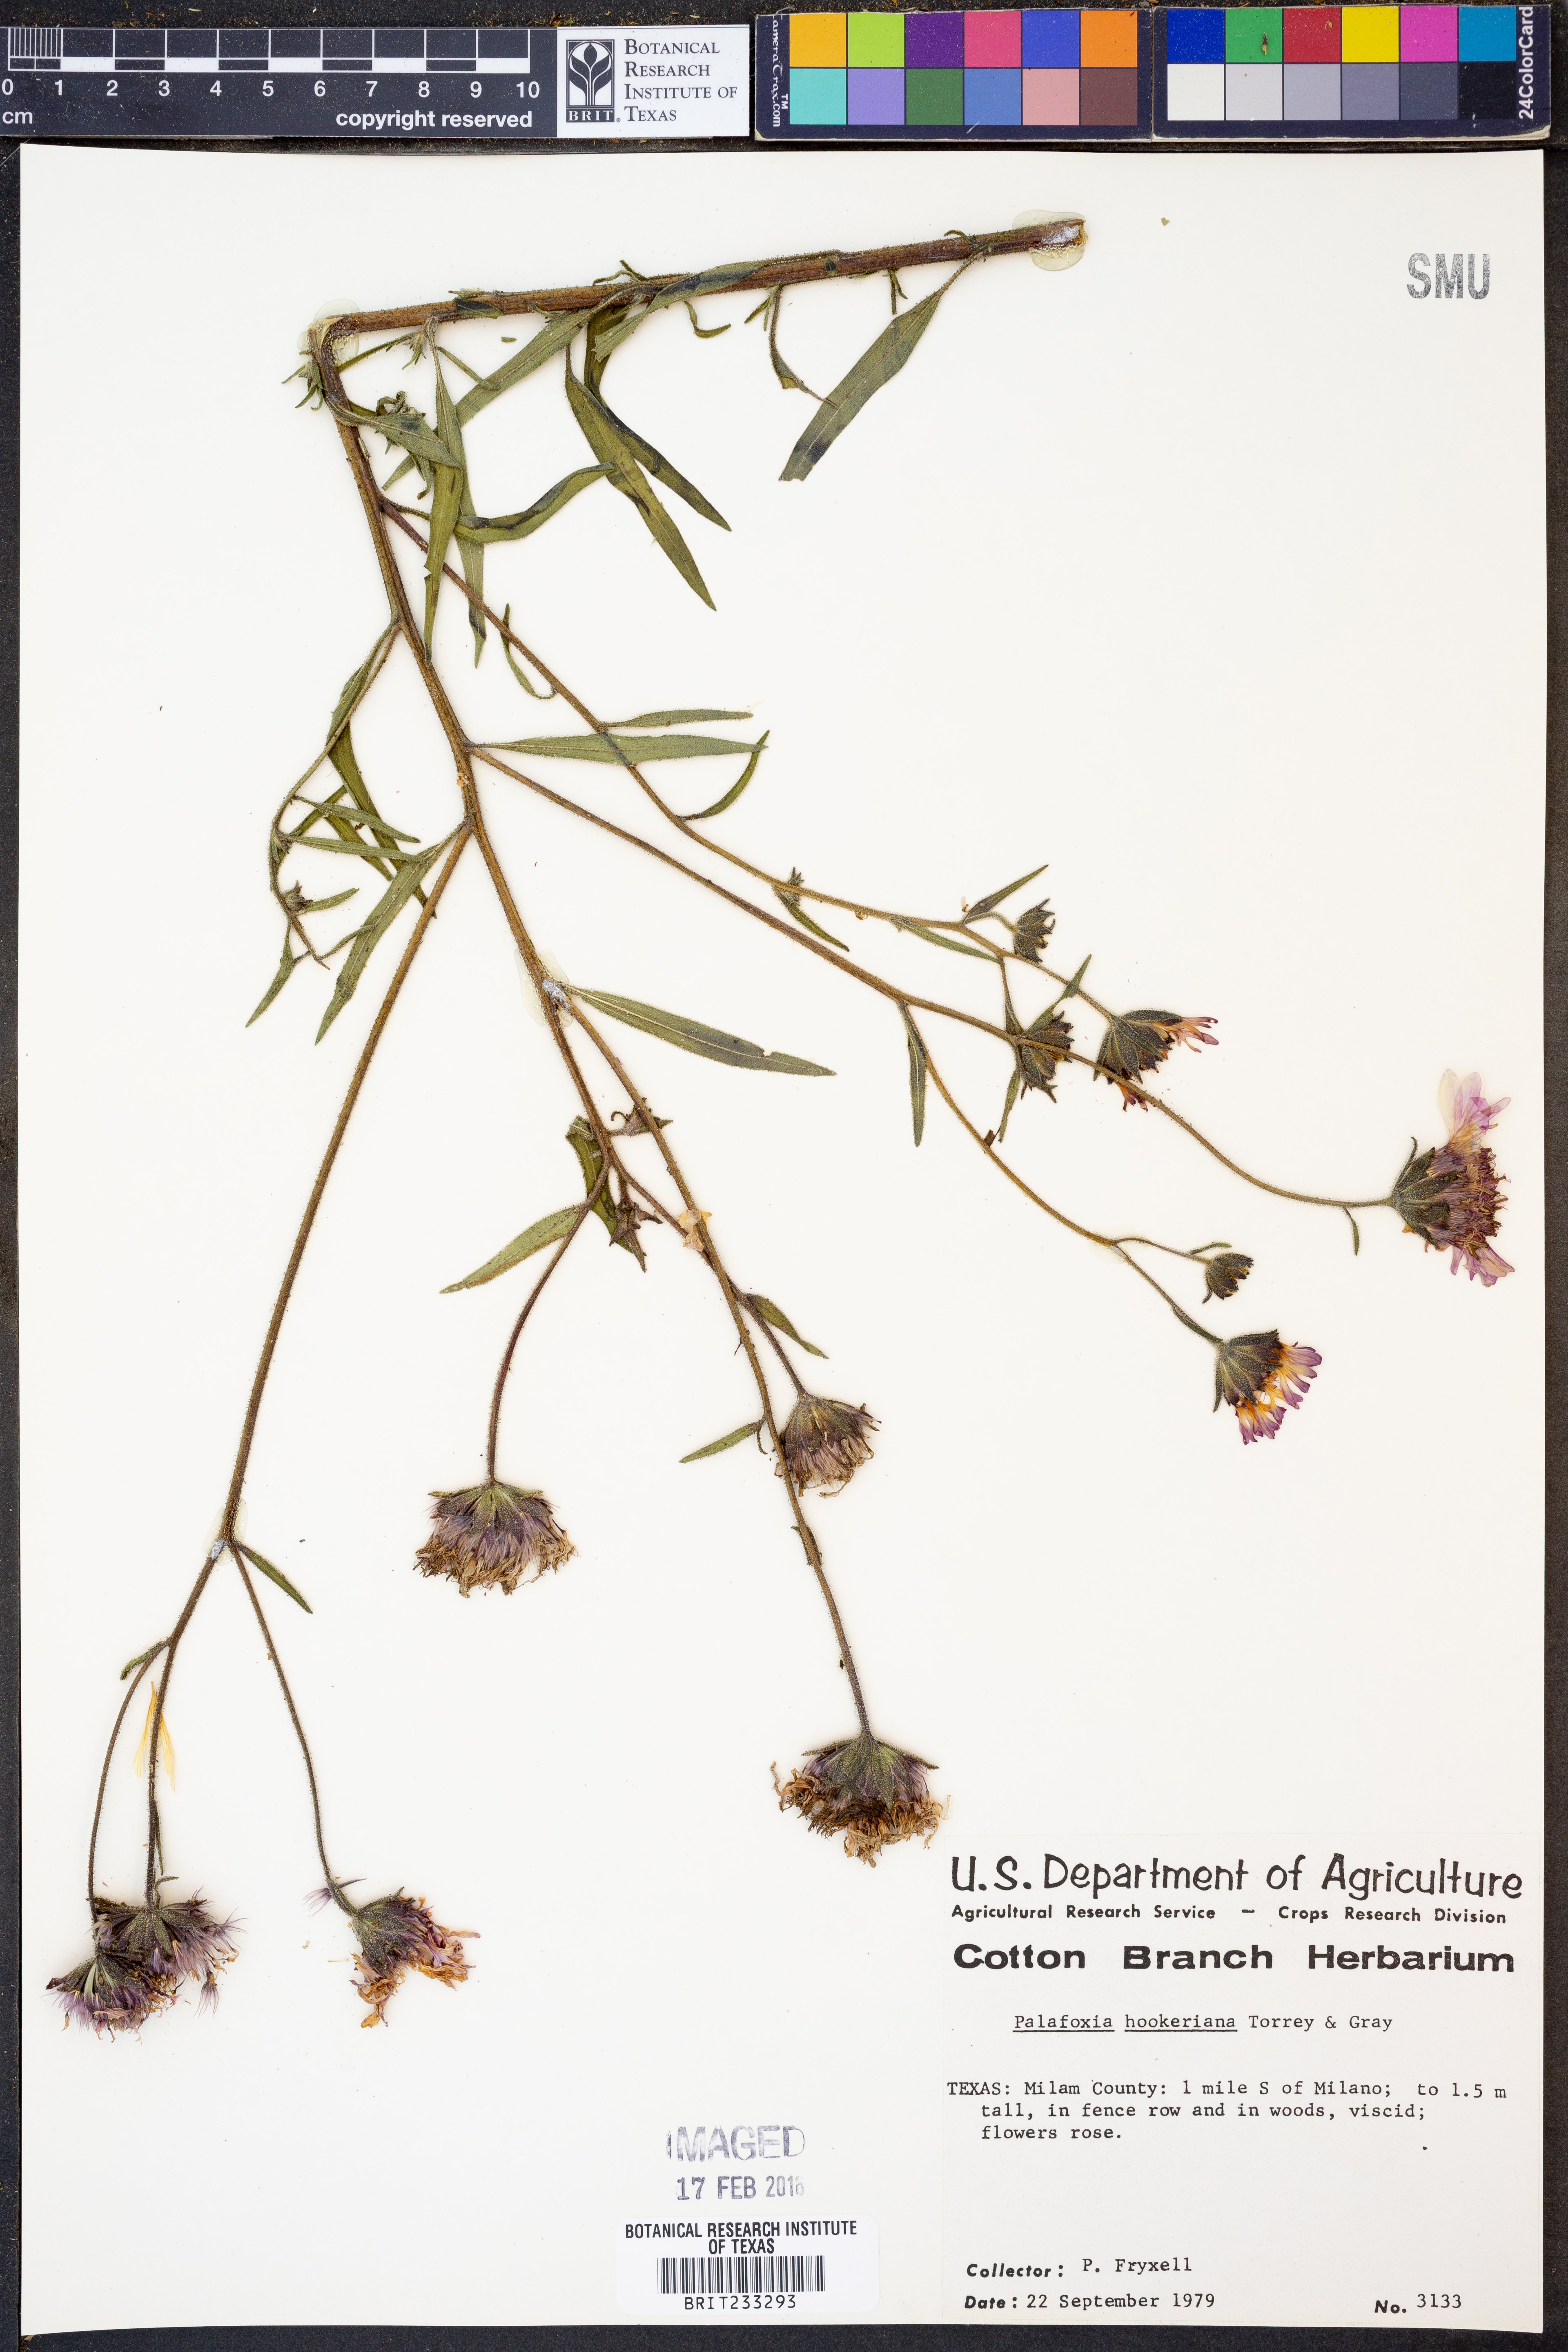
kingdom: Plantae
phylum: Tracheophyta
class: Magnoliopsida
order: Asterales
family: Asteraceae
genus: Palafoxia
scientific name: Palafoxia hookeriana
